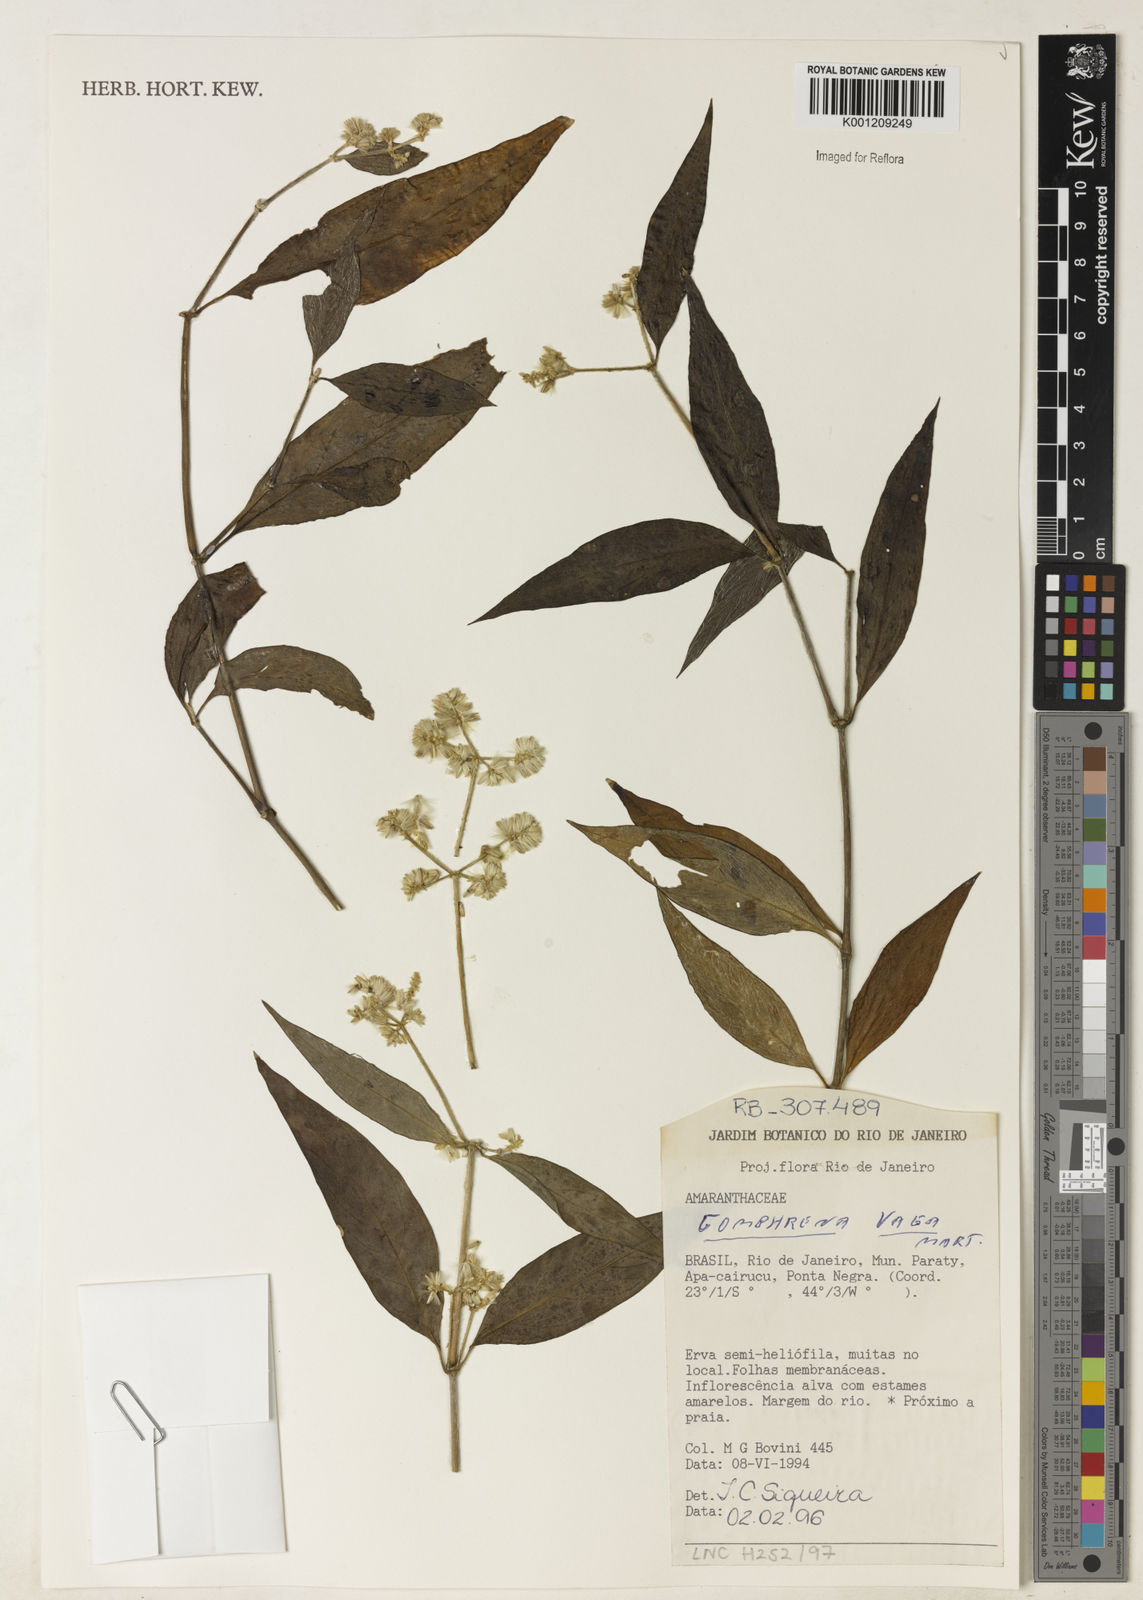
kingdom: Plantae
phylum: Tracheophyta
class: Magnoliopsida
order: Caryophyllales
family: Amaranthaceae
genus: Gomphrena
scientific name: Gomphrena vaga
